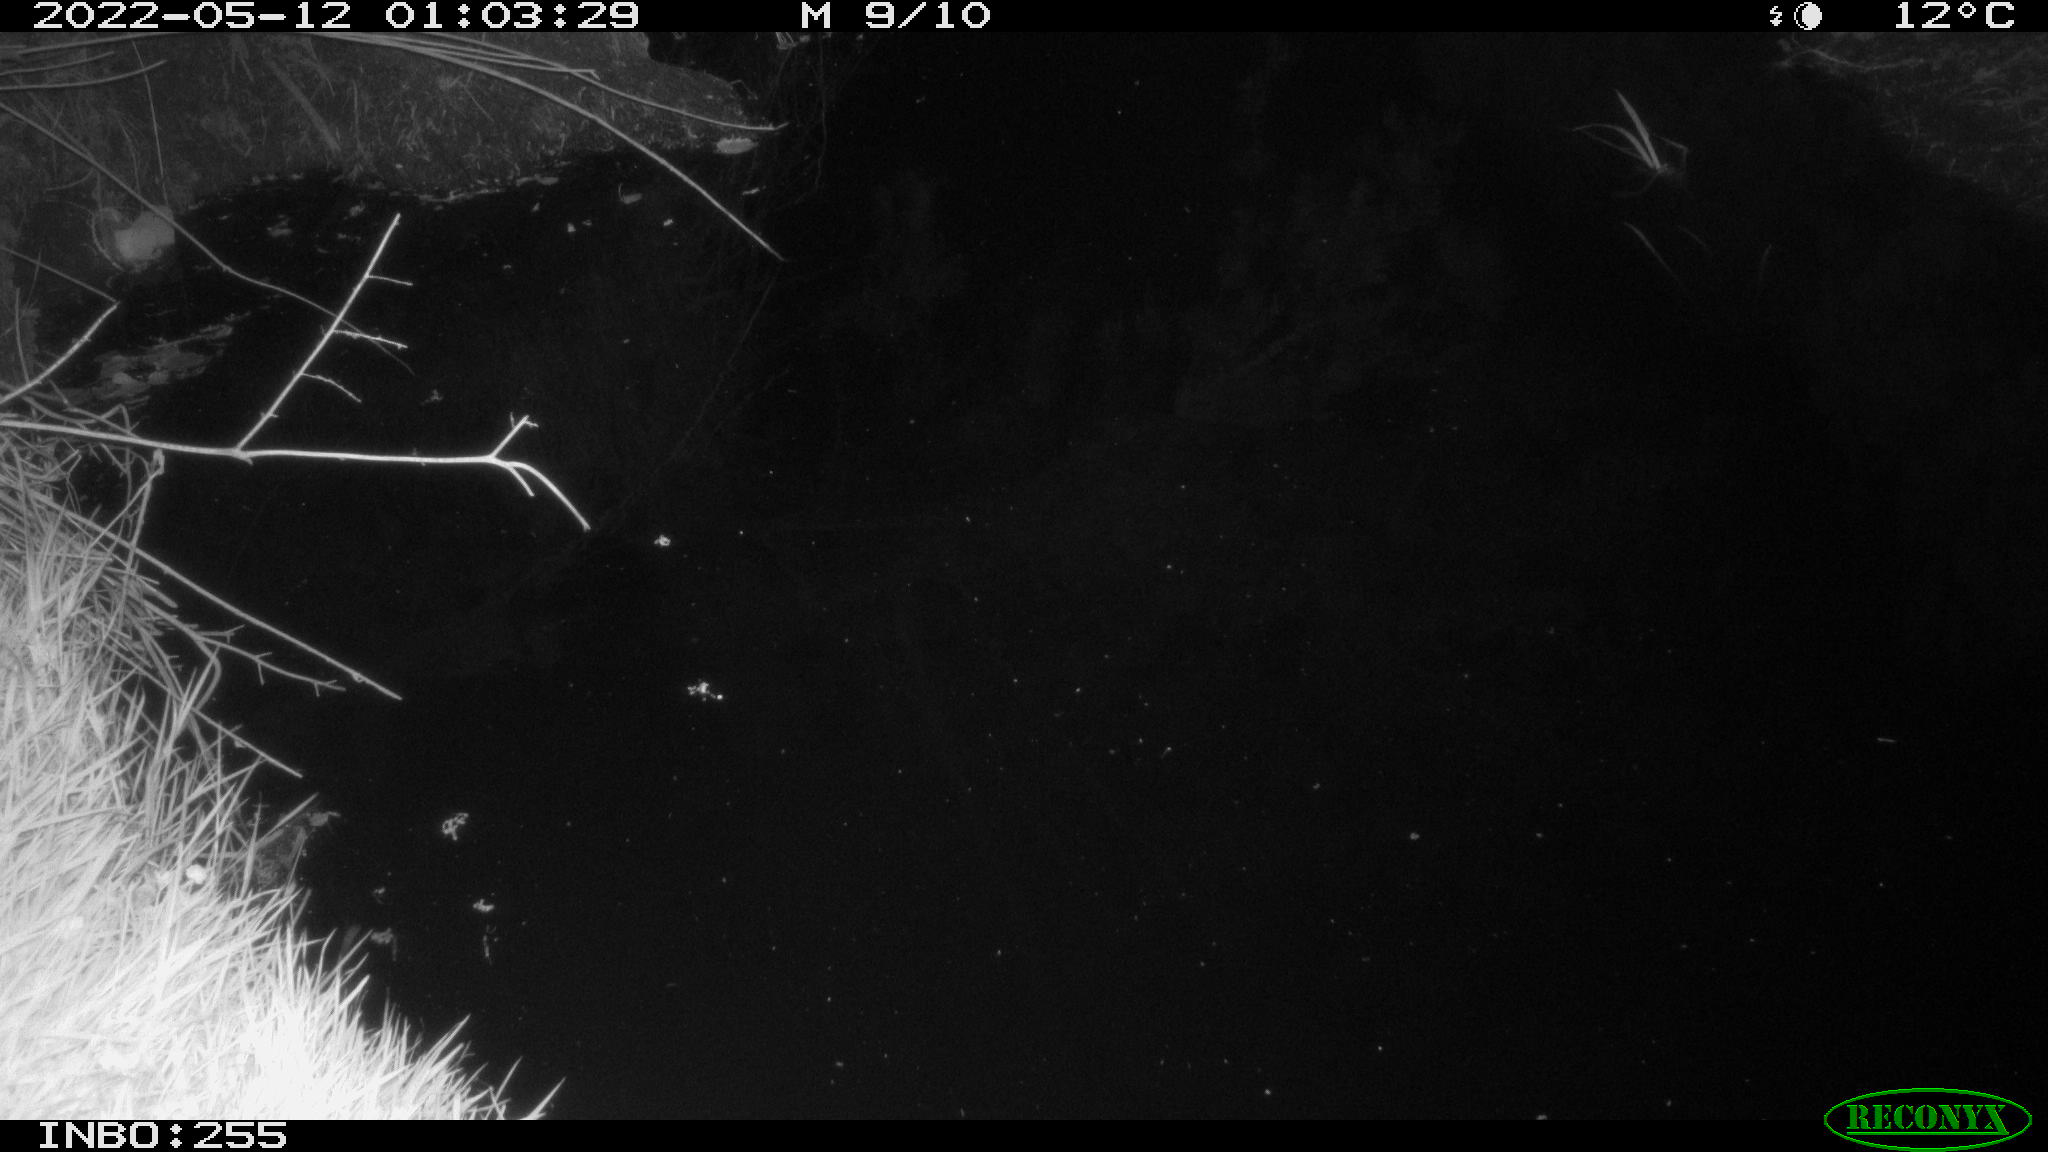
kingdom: Animalia
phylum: Chordata
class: Mammalia
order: Carnivora
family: Mustelidae
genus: Martes
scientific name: Martes foina
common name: Beech marten
